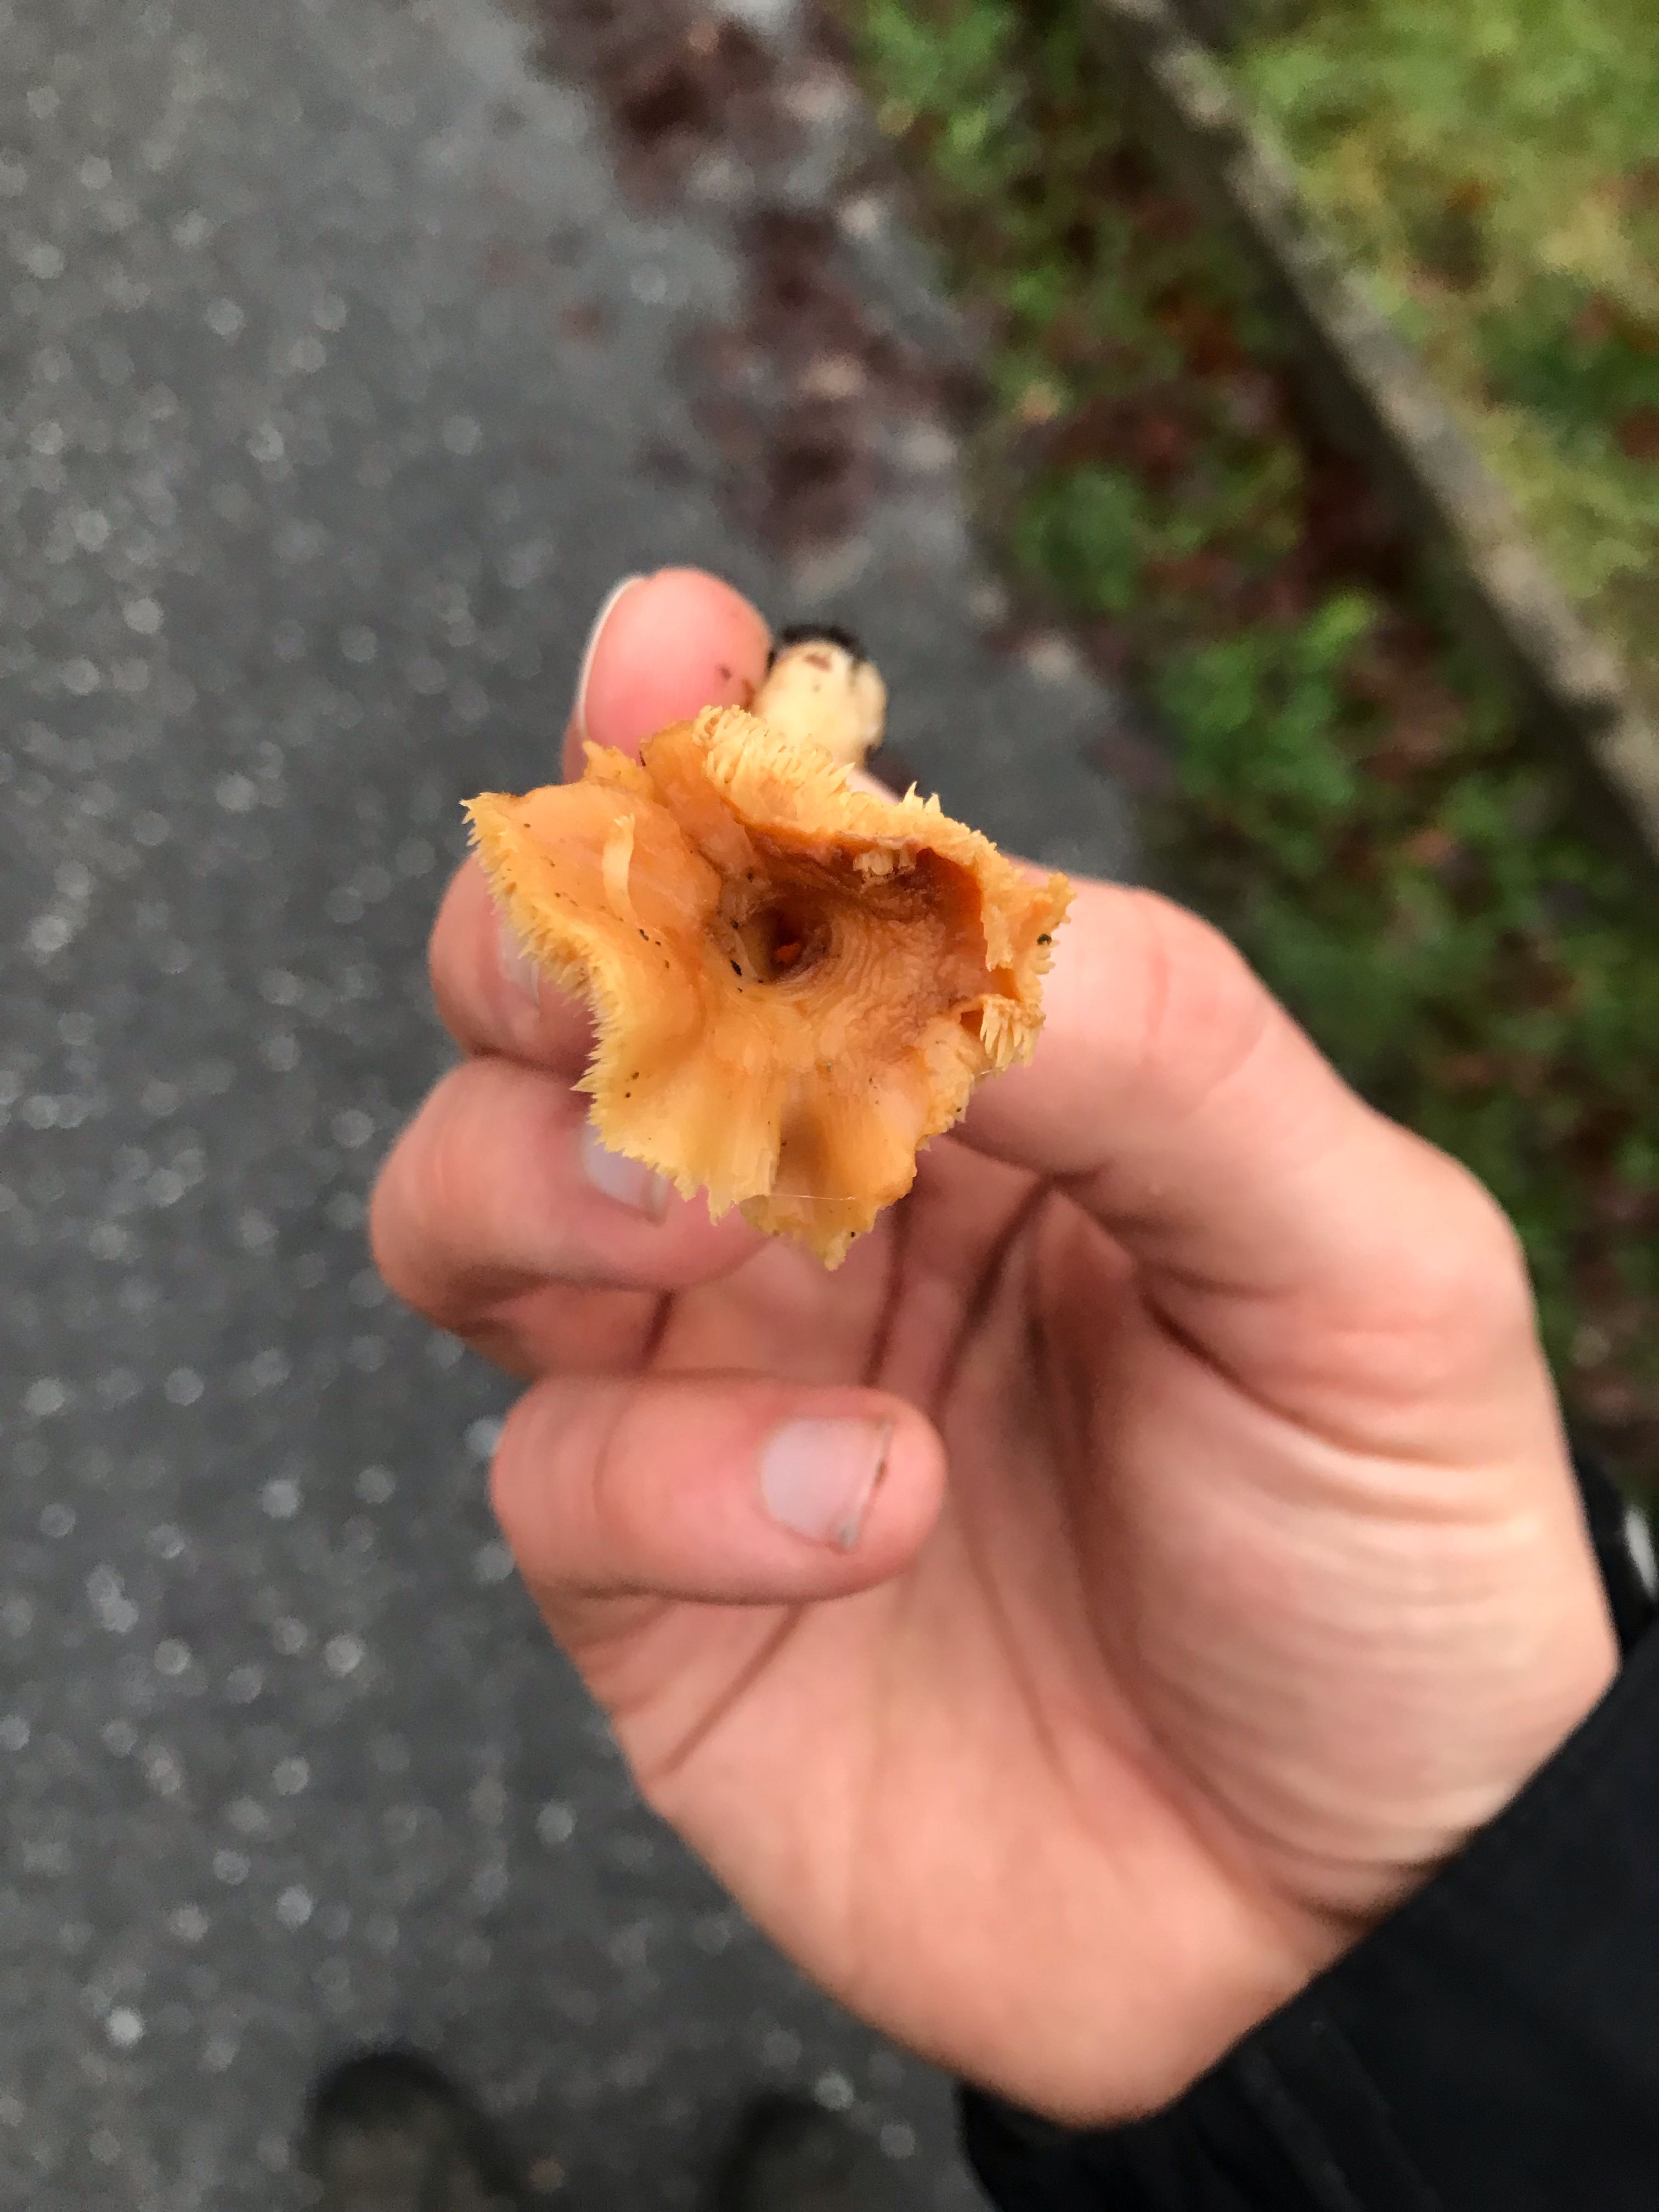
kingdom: Fungi
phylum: Basidiomycota
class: Agaricomycetes
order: Cantharellales
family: Hydnaceae
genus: Hydnum
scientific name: Hydnum umbilicatum
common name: navle-pigsvamp
